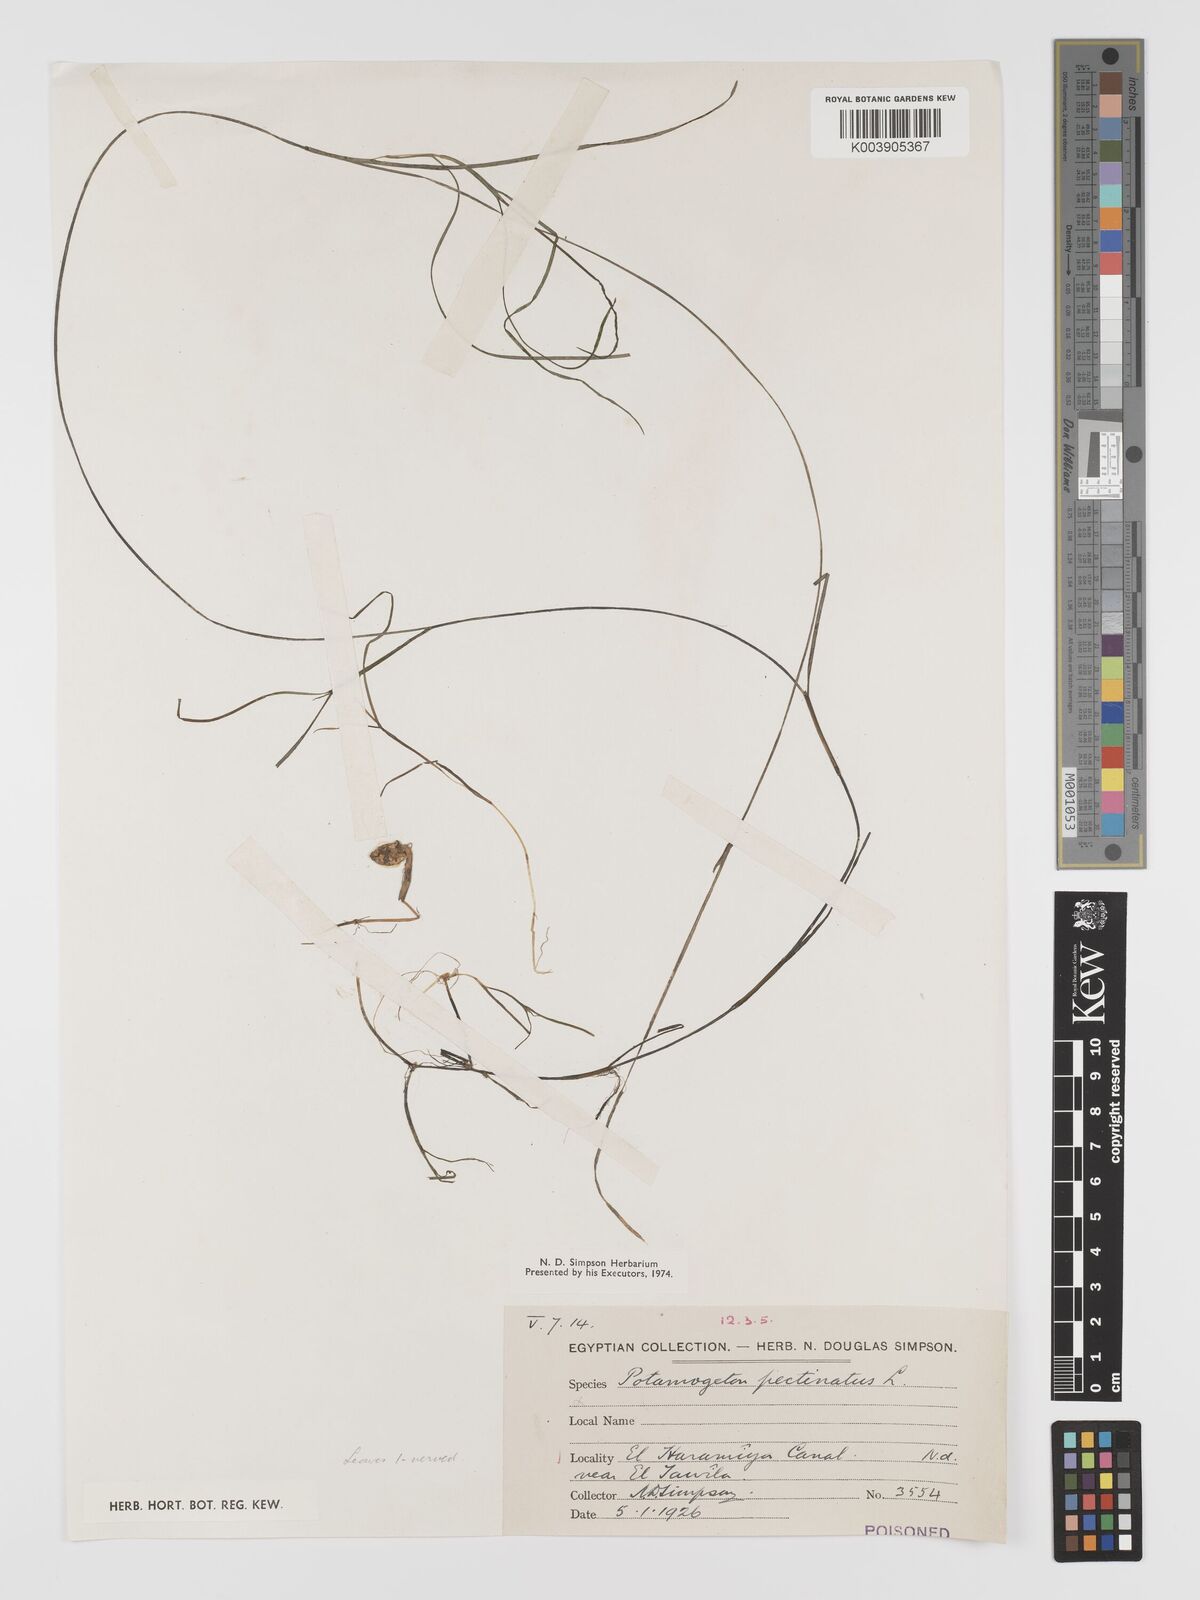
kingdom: Plantae
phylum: Tracheophyta
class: Liliopsida
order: Alismatales
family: Potamogetonaceae
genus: Stuckenia
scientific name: Stuckenia pectinata
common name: Sago pondweed
